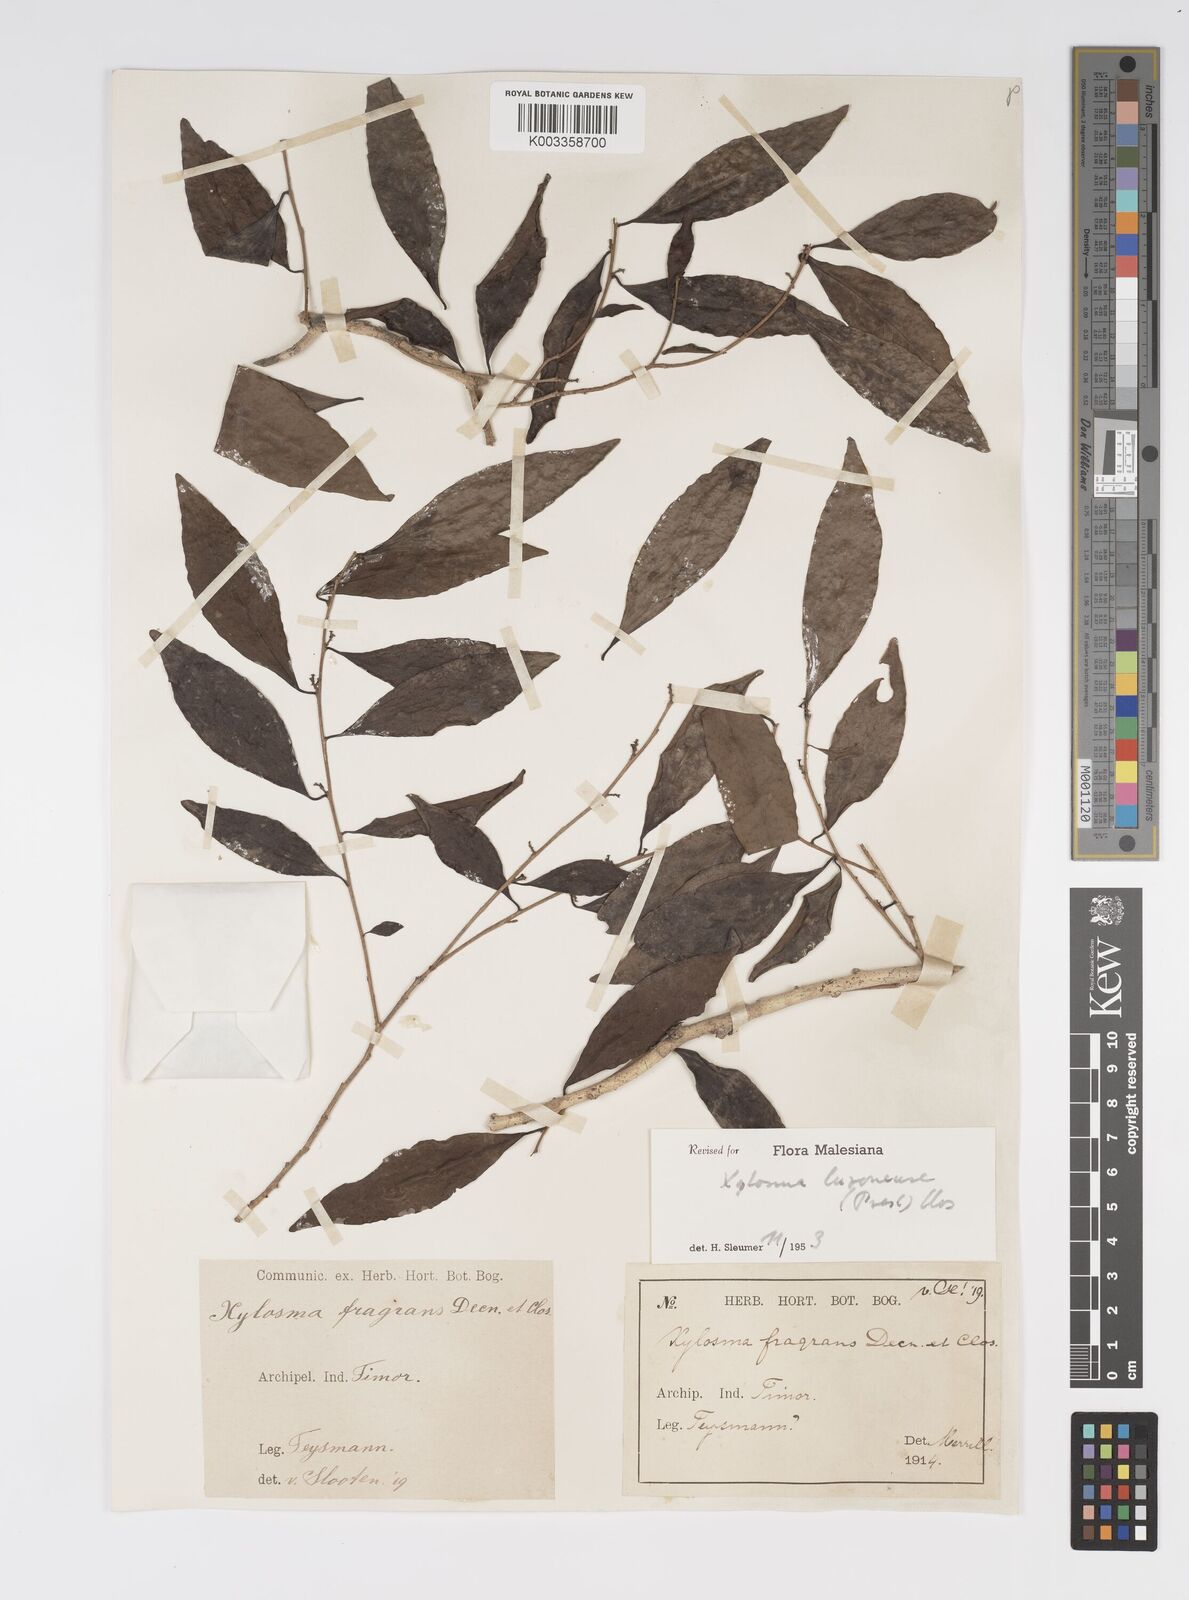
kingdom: Plantae
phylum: Tracheophyta
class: Magnoliopsida
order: Malpighiales
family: Salicaceae
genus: Xylosma
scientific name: Xylosma luzonensis
